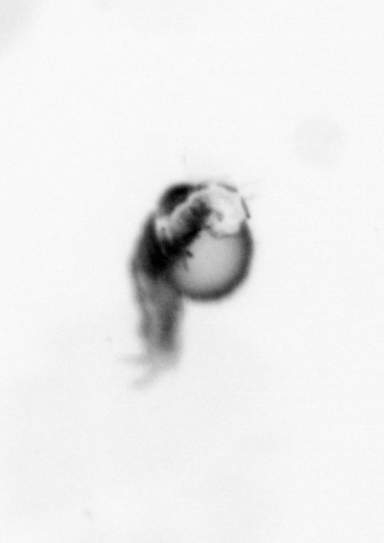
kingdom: Animalia
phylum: Annelida
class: Polychaeta
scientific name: Polychaeta
